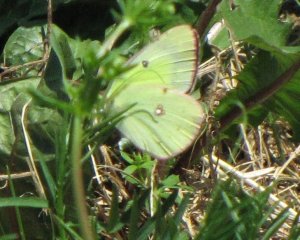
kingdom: Animalia
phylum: Arthropoda
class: Insecta
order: Lepidoptera
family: Pieridae
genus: Colias
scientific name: Colias philodice
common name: Clouded Sulphur
